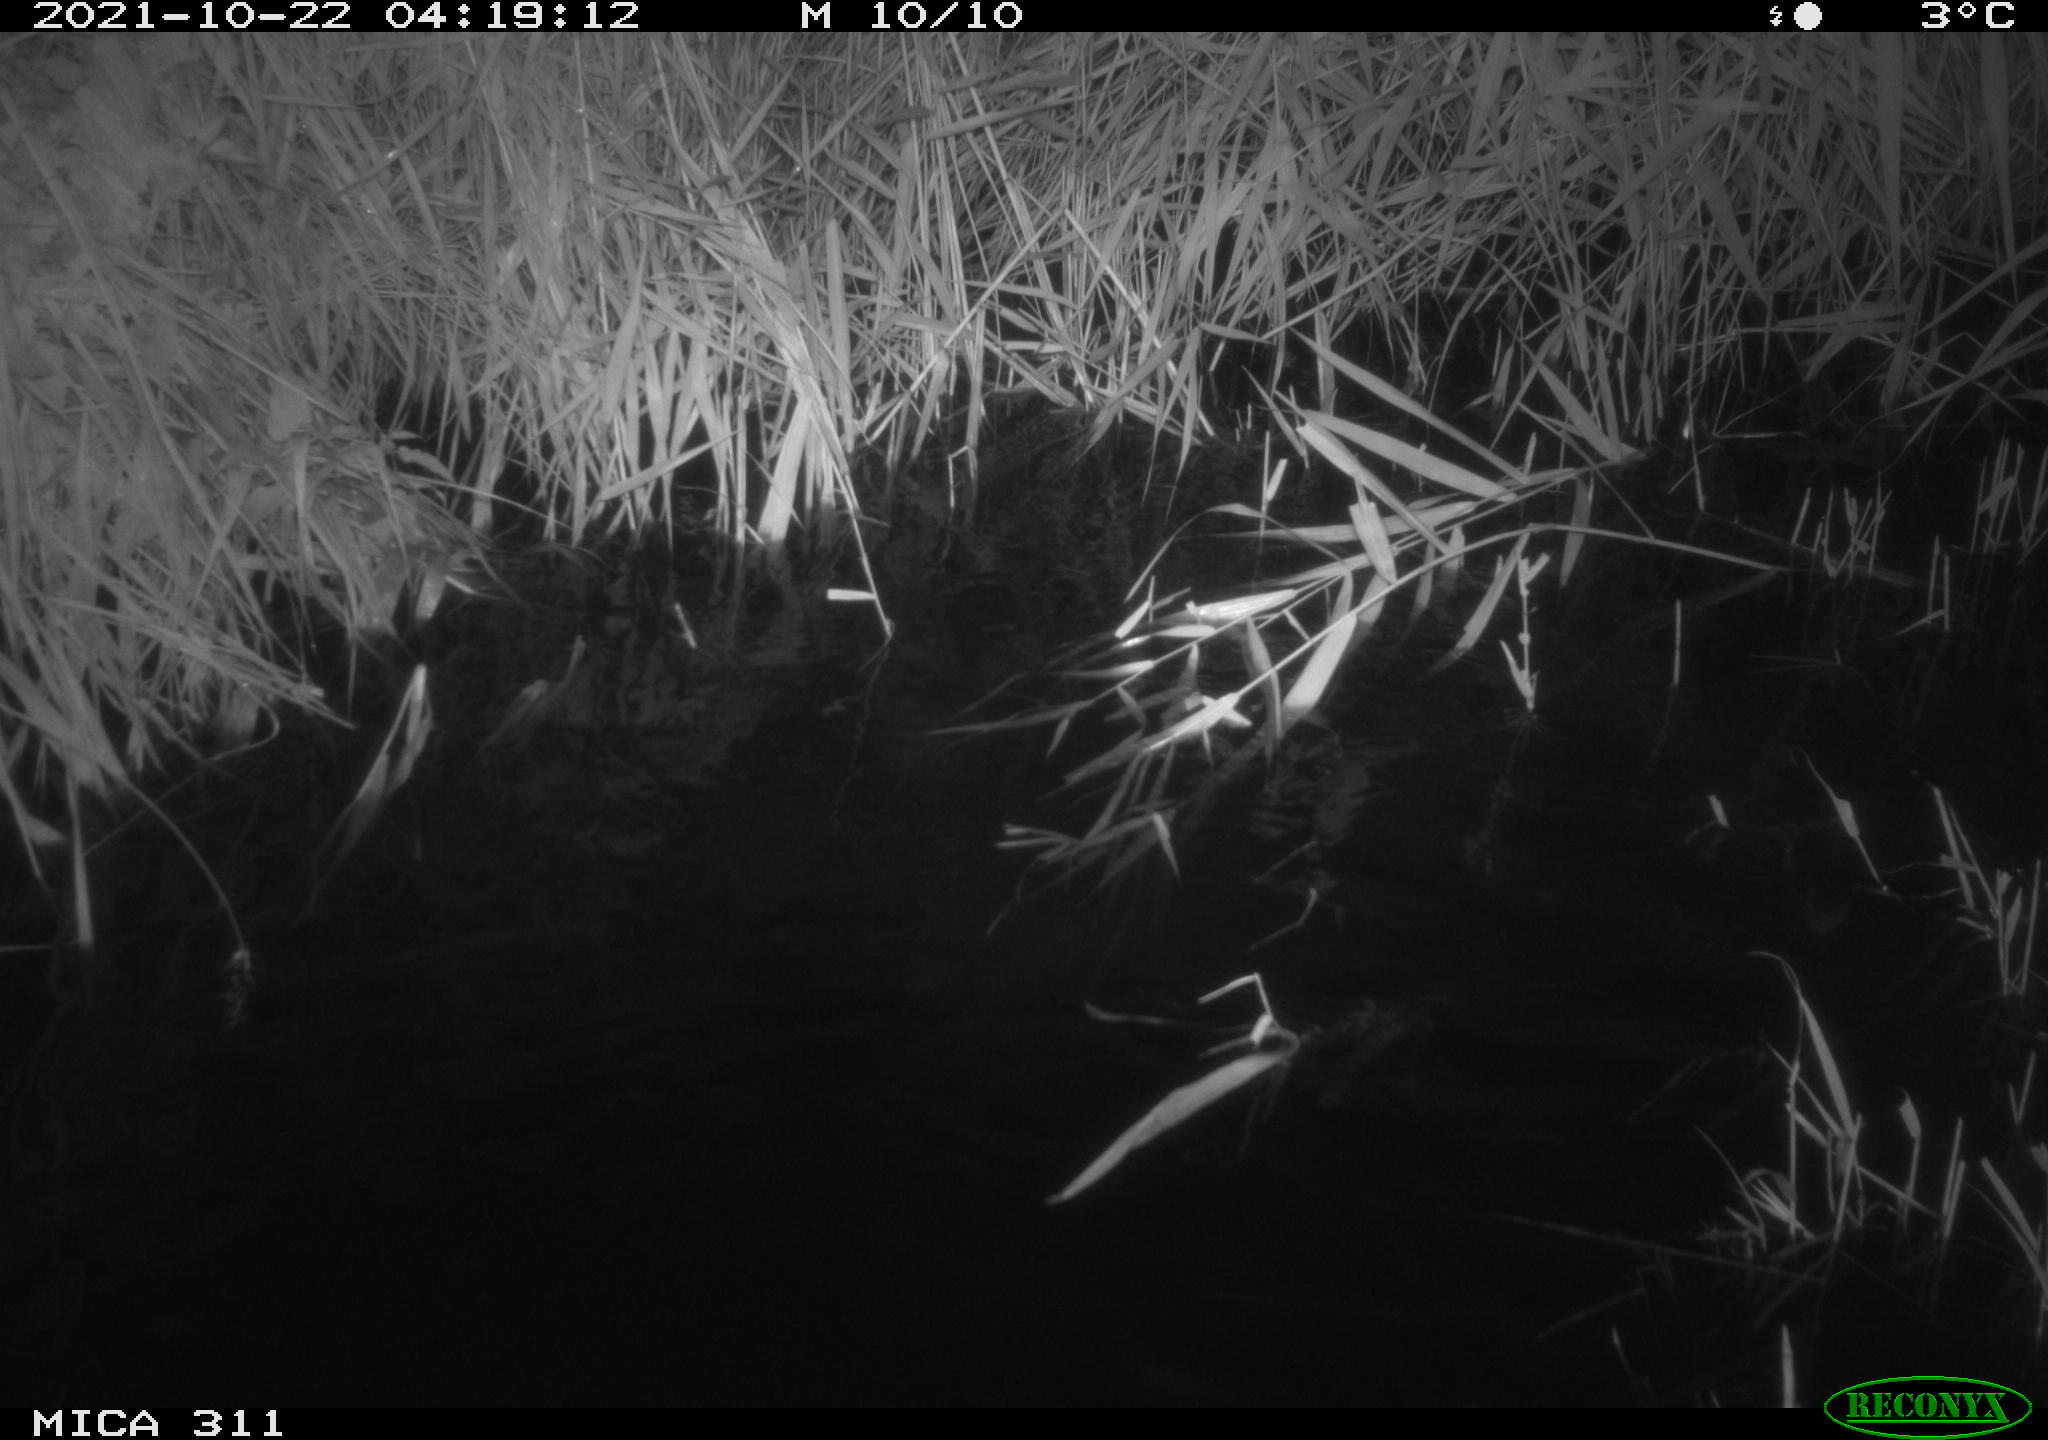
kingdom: Animalia
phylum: Chordata
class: Mammalia
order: Rodentia
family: Muridae
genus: Rattus
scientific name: Rattus norvegicus
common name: Brown rat
